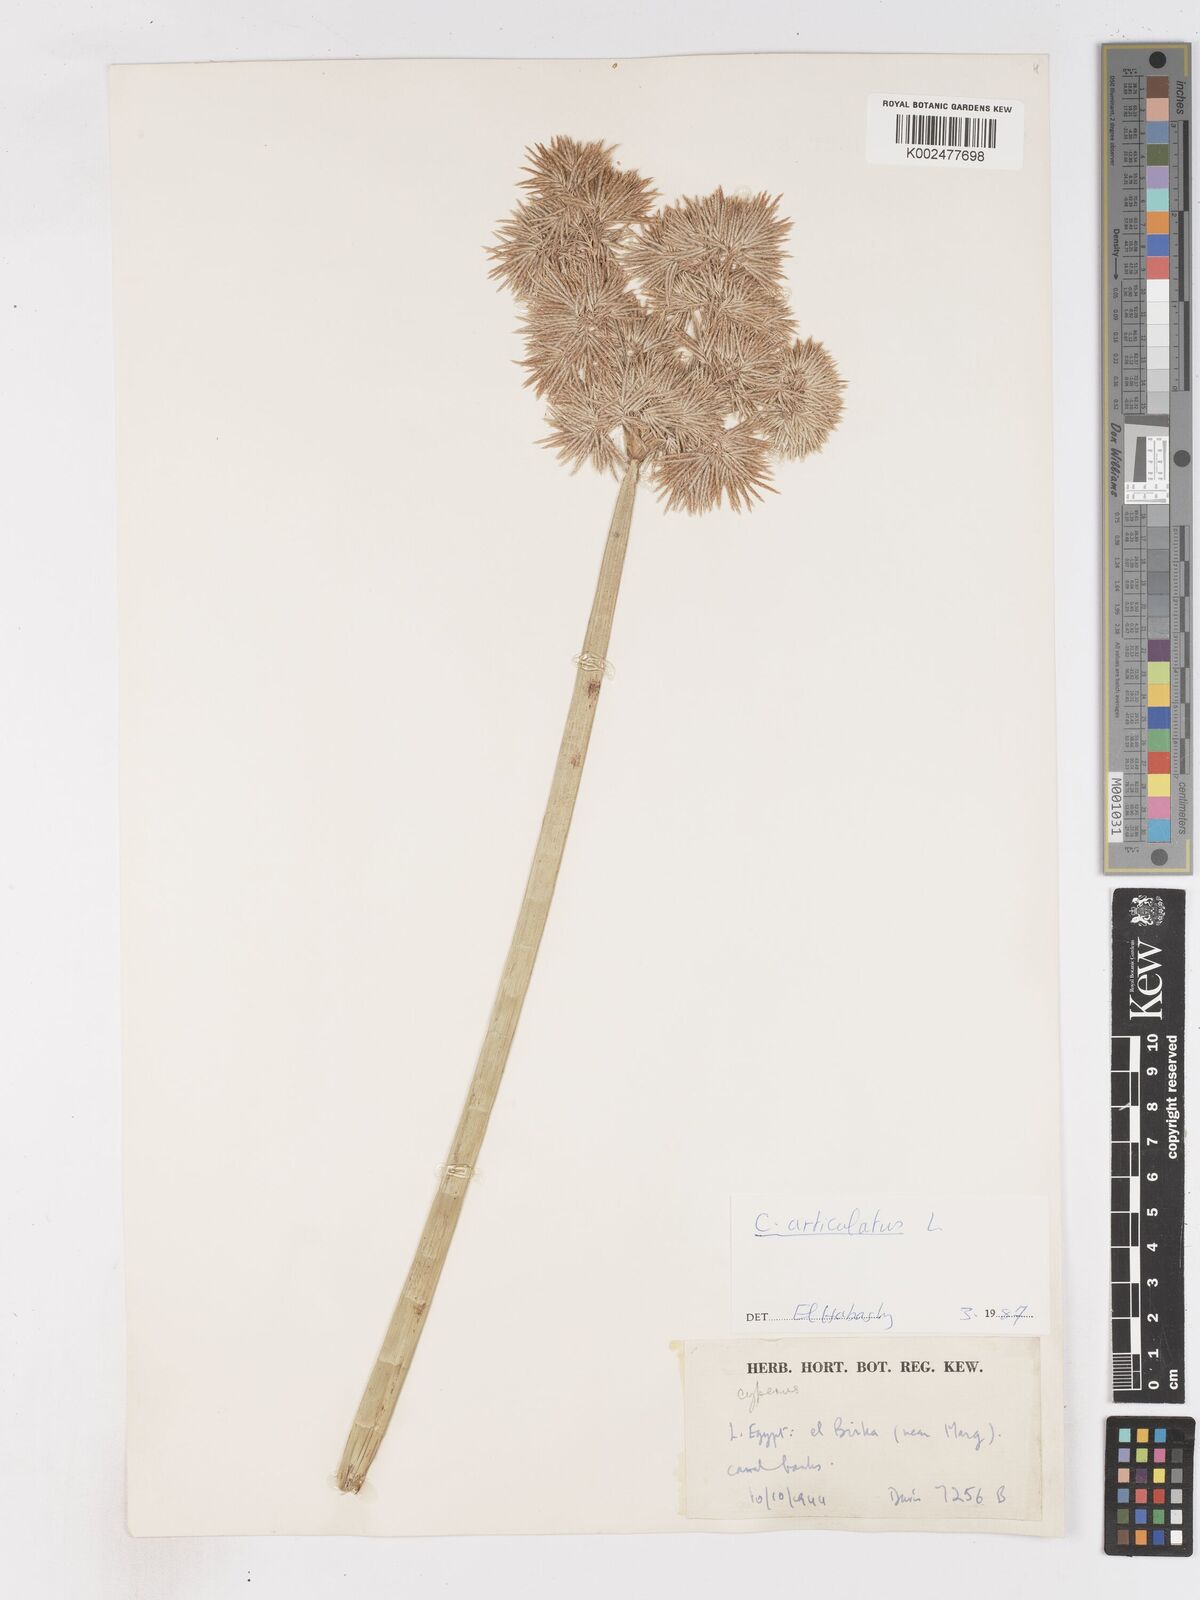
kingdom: Plantae
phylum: Tracheophyta
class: Liliopsida
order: Poales
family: Cyperaceae
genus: Cyperus
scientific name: Cyperus articulatus
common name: Jointed flatsedge
